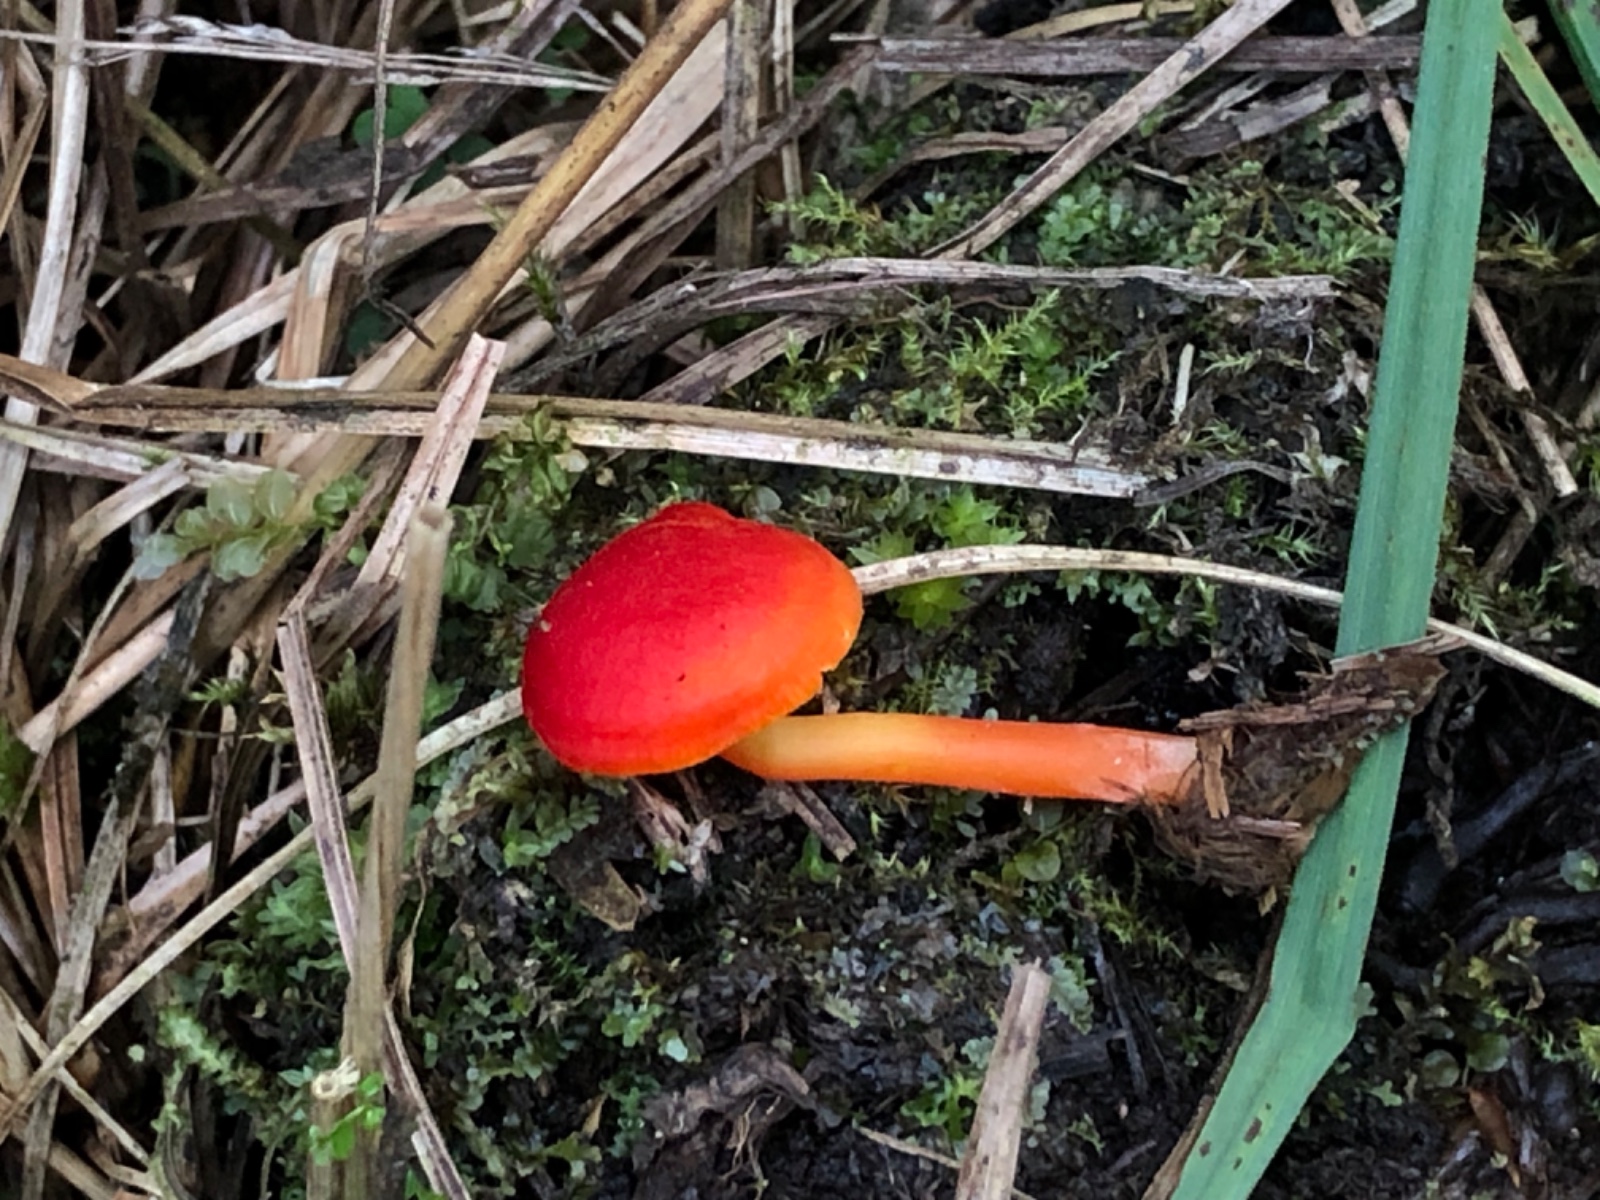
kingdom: Fungi
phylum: Basidiomycota
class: Agaricomycetes
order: Agaricales
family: Hygrophoraceae
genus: Hygrocybe
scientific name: Hygrocybe
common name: vokshat
